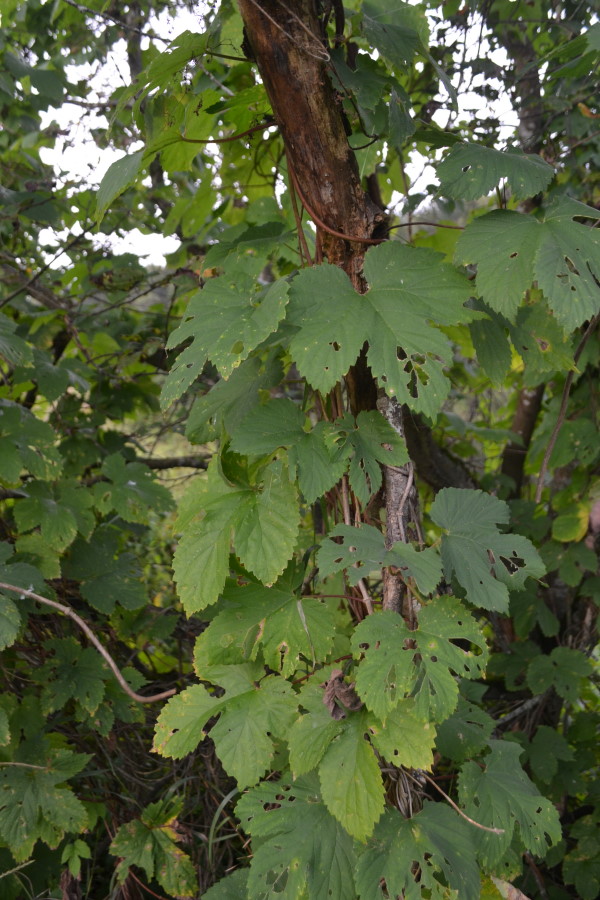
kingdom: Plantae
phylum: Tracheophyta
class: Magnoliopsida
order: Rosales
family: Cannabaceae
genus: Humulus
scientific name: Humulus lupulus
